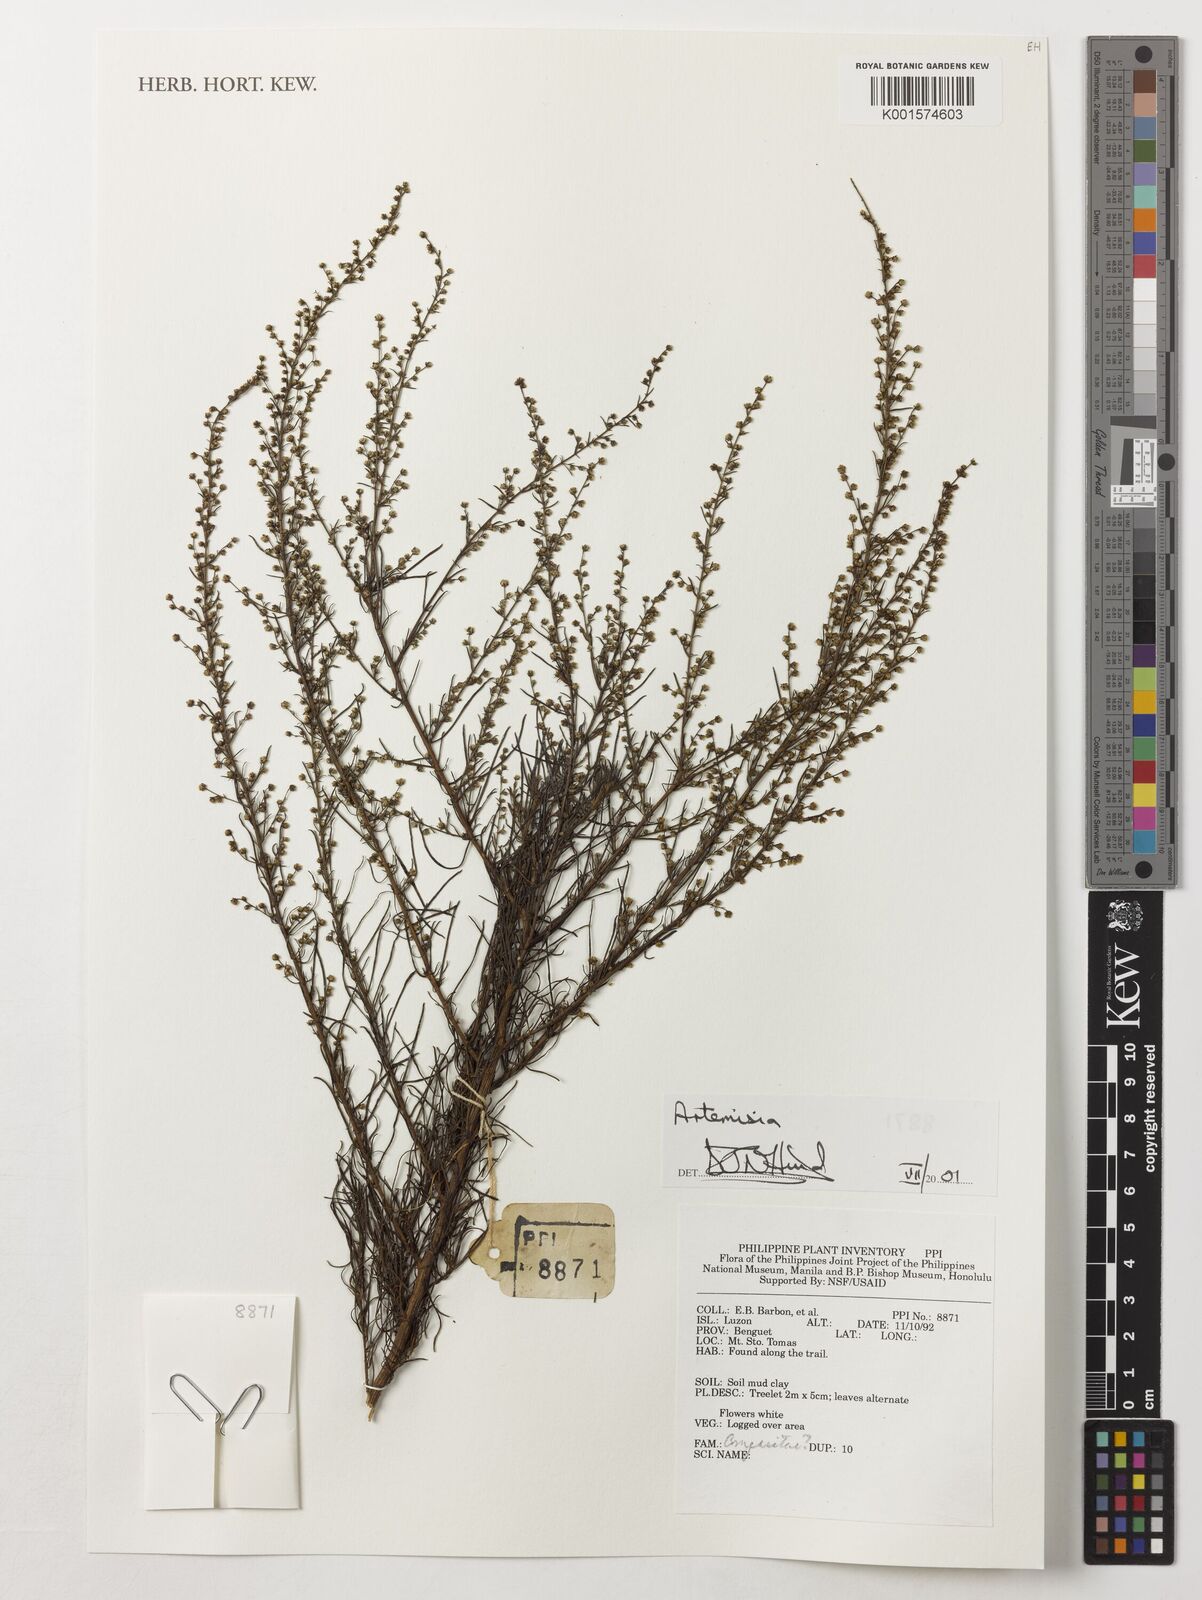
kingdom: Plantae
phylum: Tracheophyta
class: Magnoliopsida
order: Asterales
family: Asteraceae
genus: Artemisia
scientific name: Artemisia
